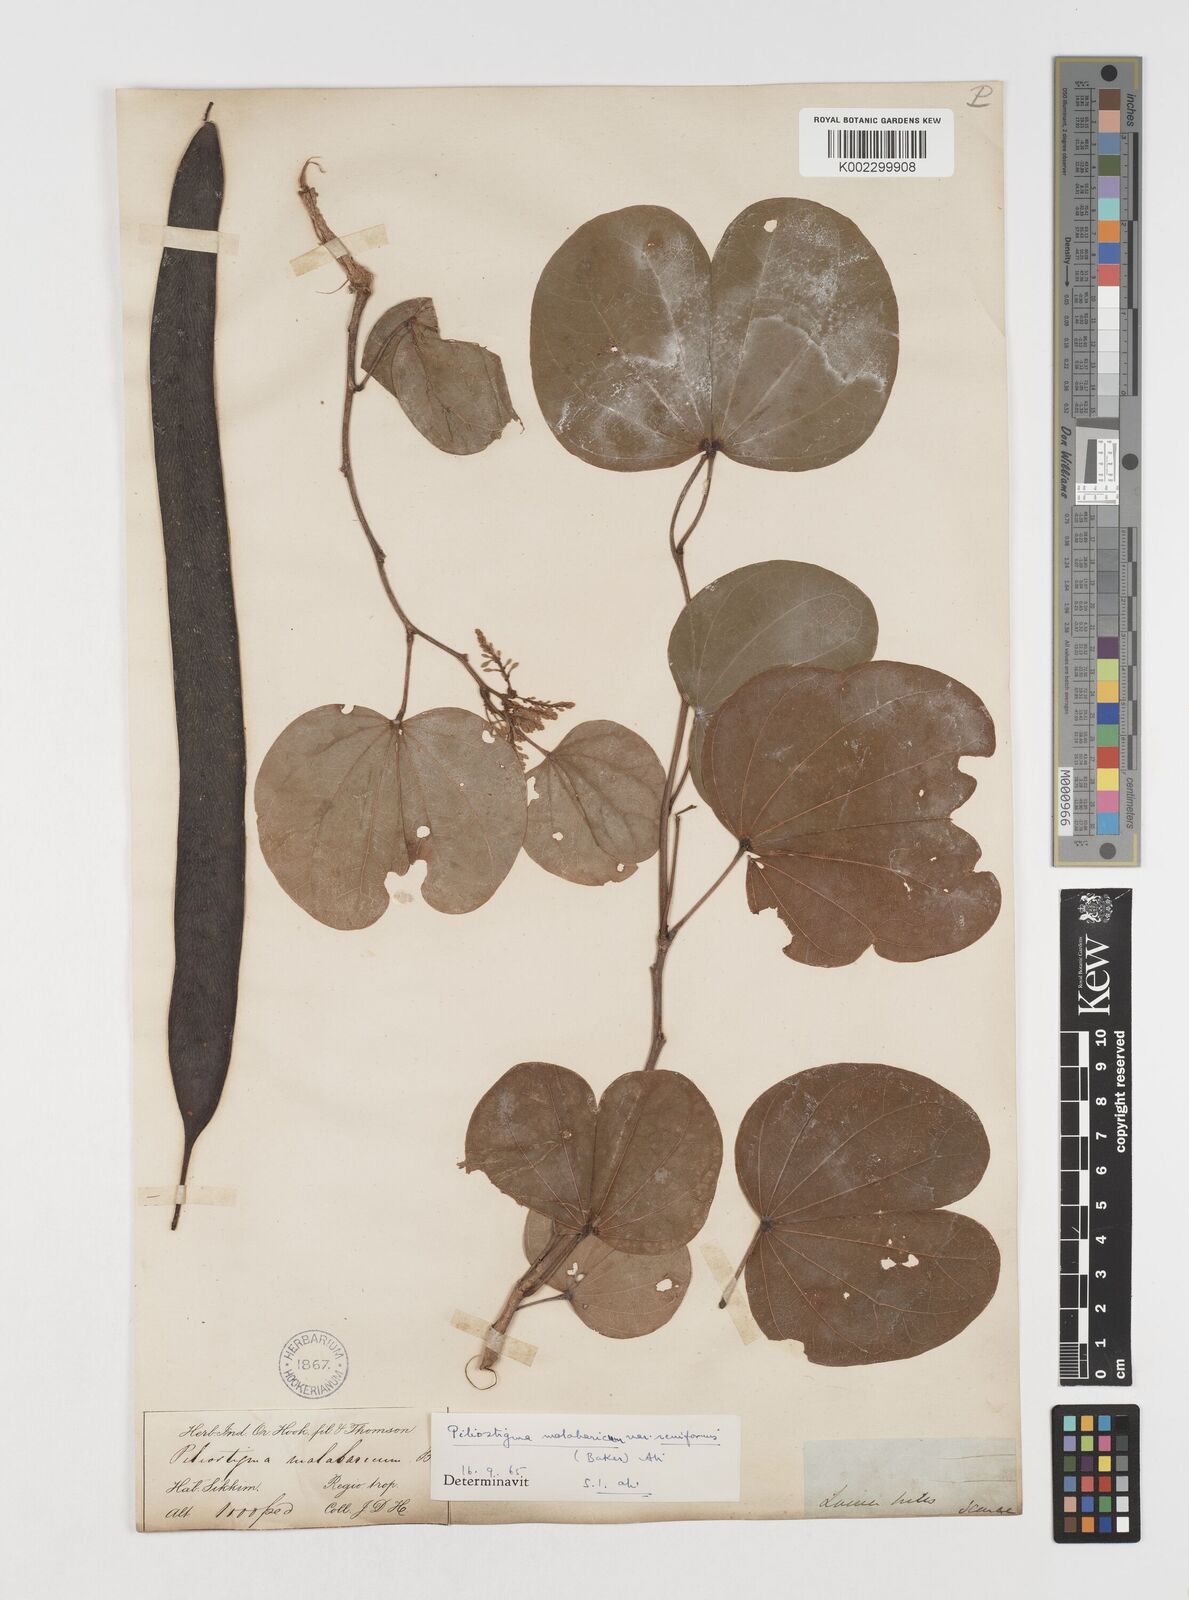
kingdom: Plantae
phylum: Tracheophyta
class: Magnoliopsida
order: Fabales
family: Fabaceae
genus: Piliostigma
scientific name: Piliostigma malabaricum
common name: Malabar bauhinia
